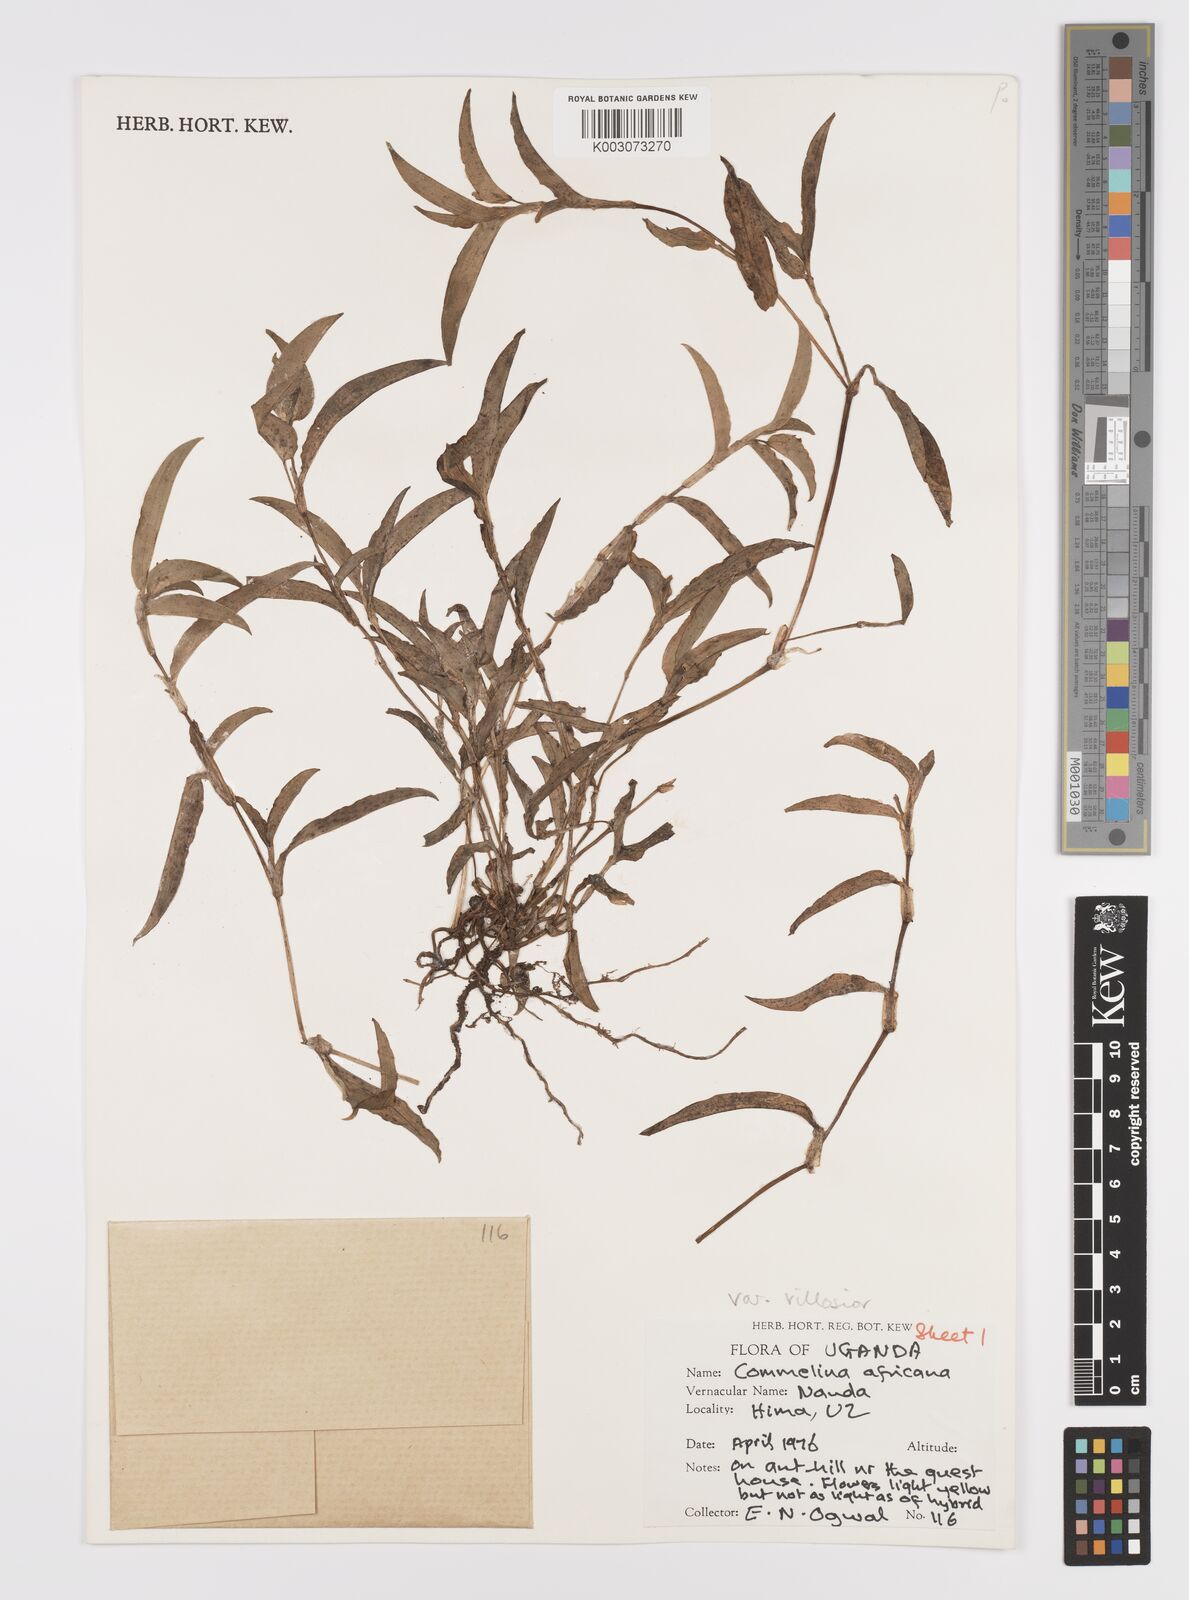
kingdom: Plantae
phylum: Tracheophyta
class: Liliopsida
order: Commelinales
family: Commelinaceae
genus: Commelina
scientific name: Commelina africana
